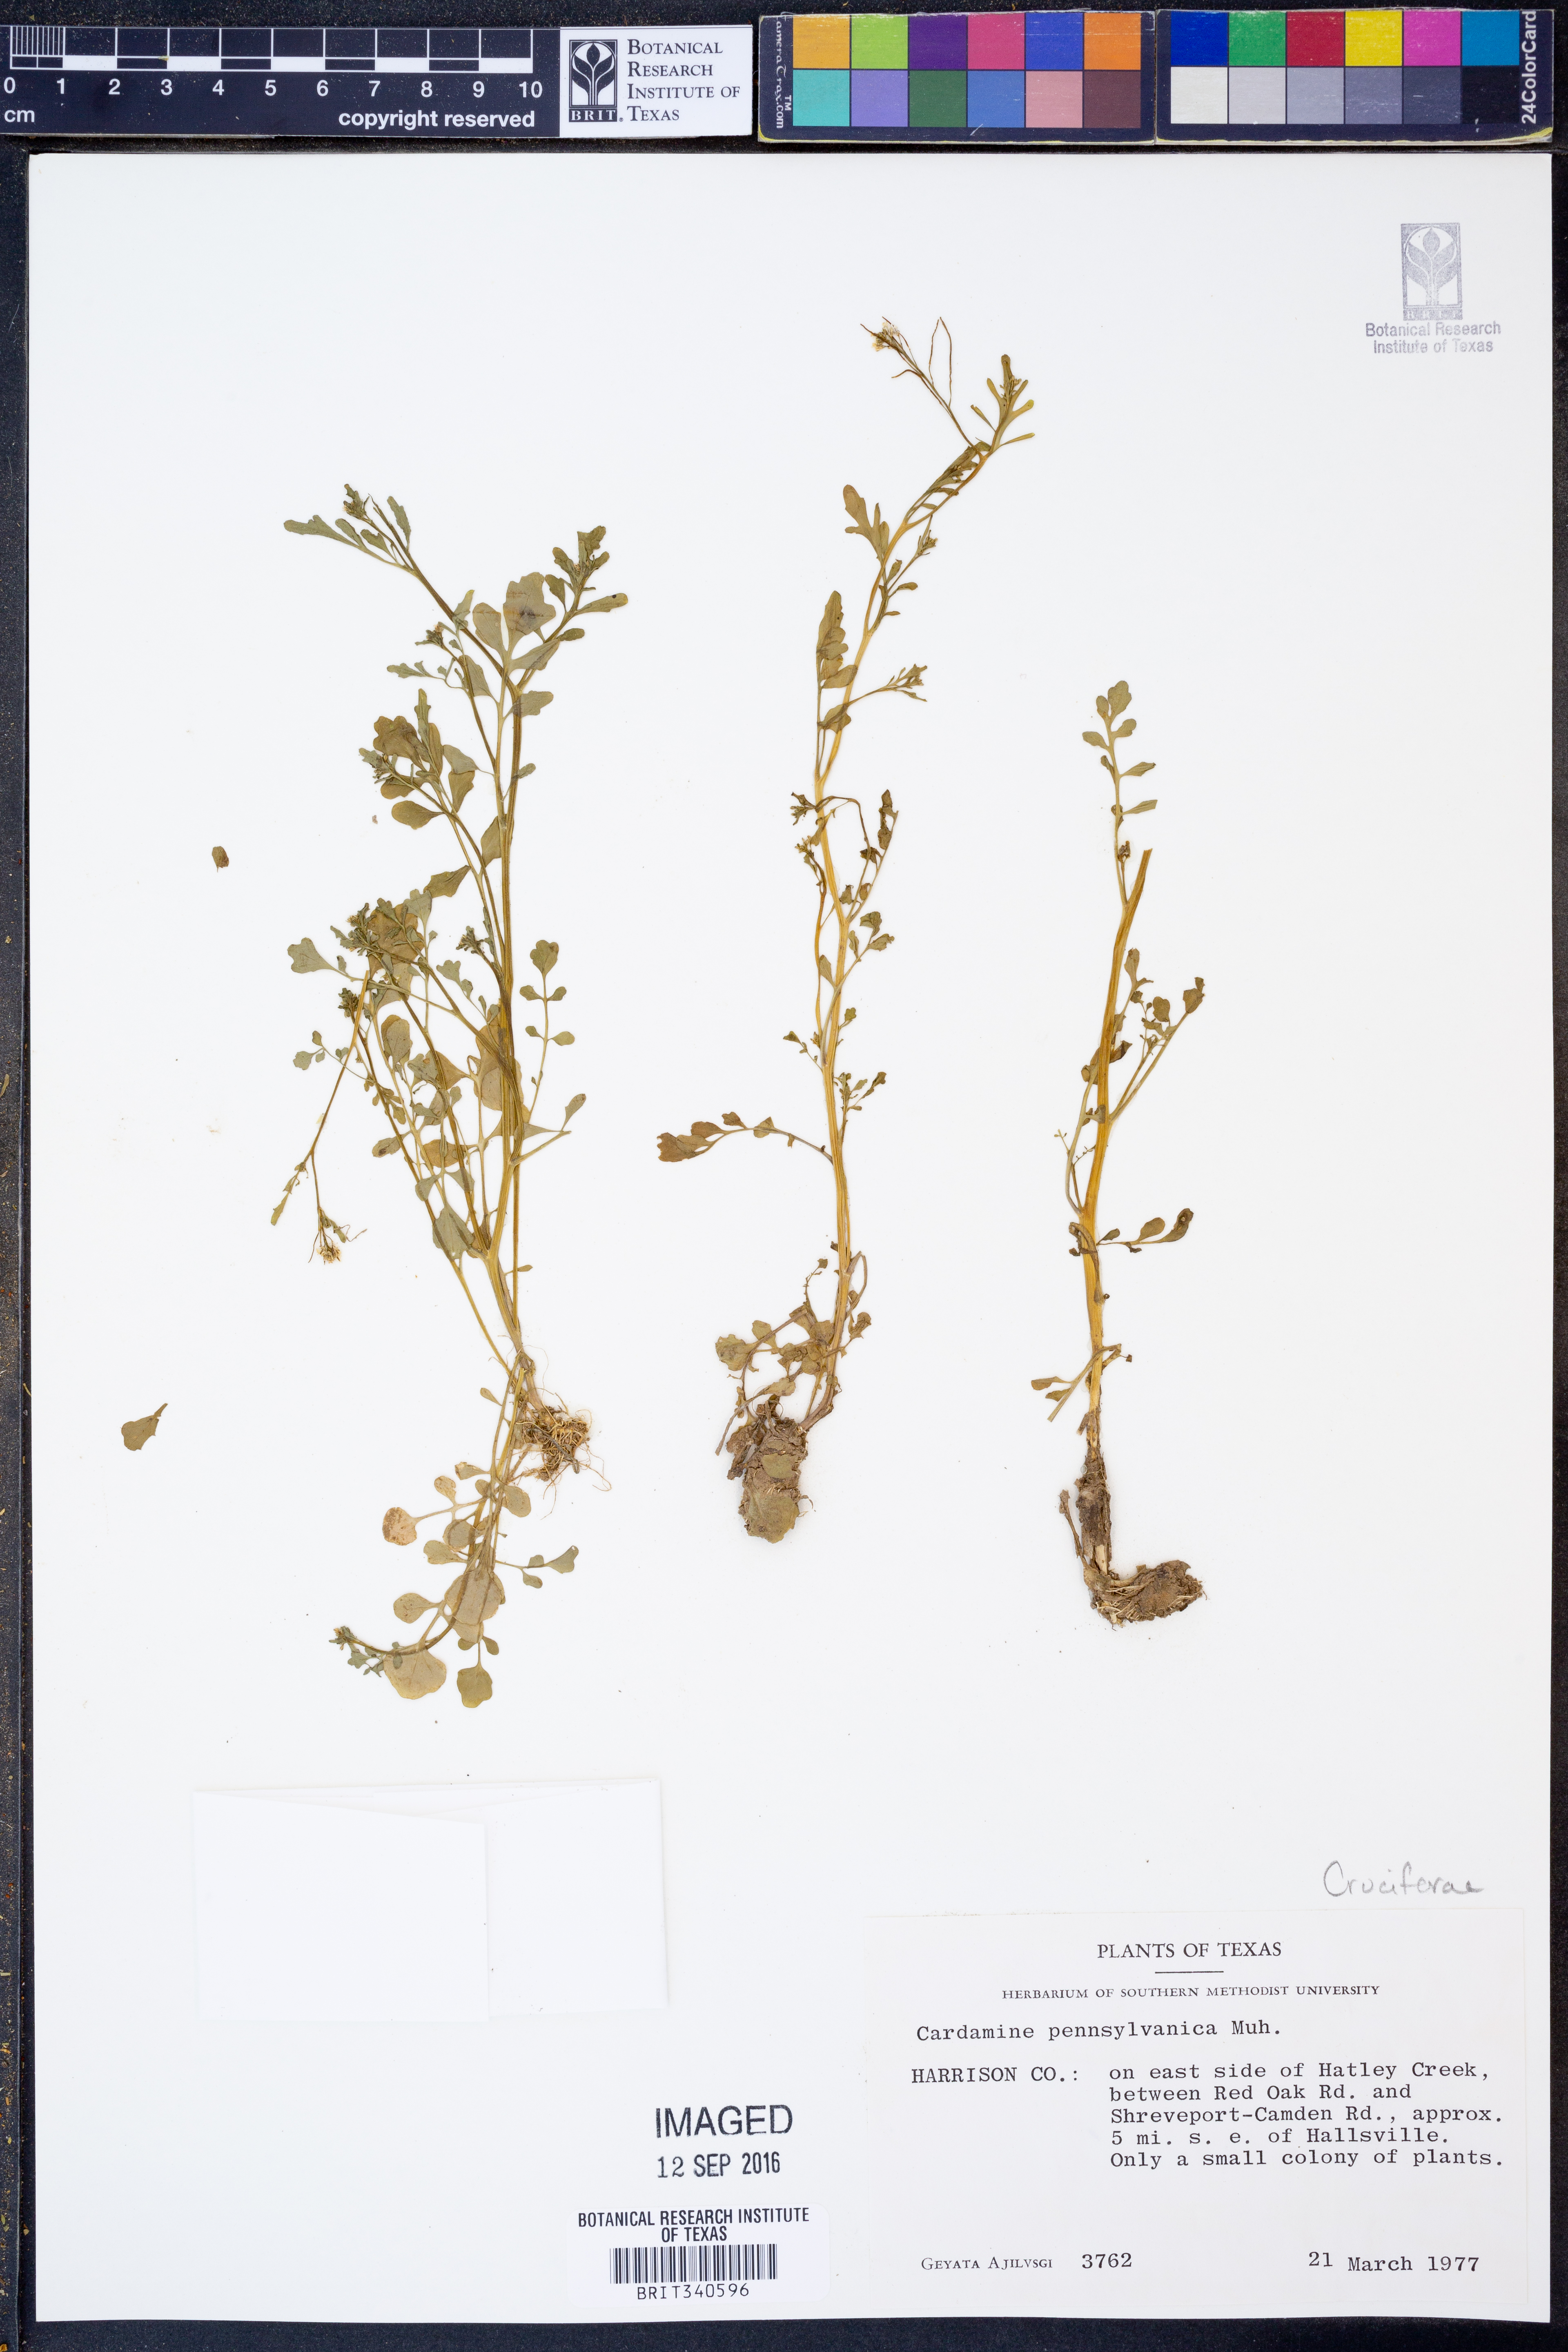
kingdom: Plantae
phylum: Tracheophyta
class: Magnoliopsida
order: Brassicales
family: Brassicaceae
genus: Cardamine
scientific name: Cardamine pensylvanica
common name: Pennsylvania bittercress
